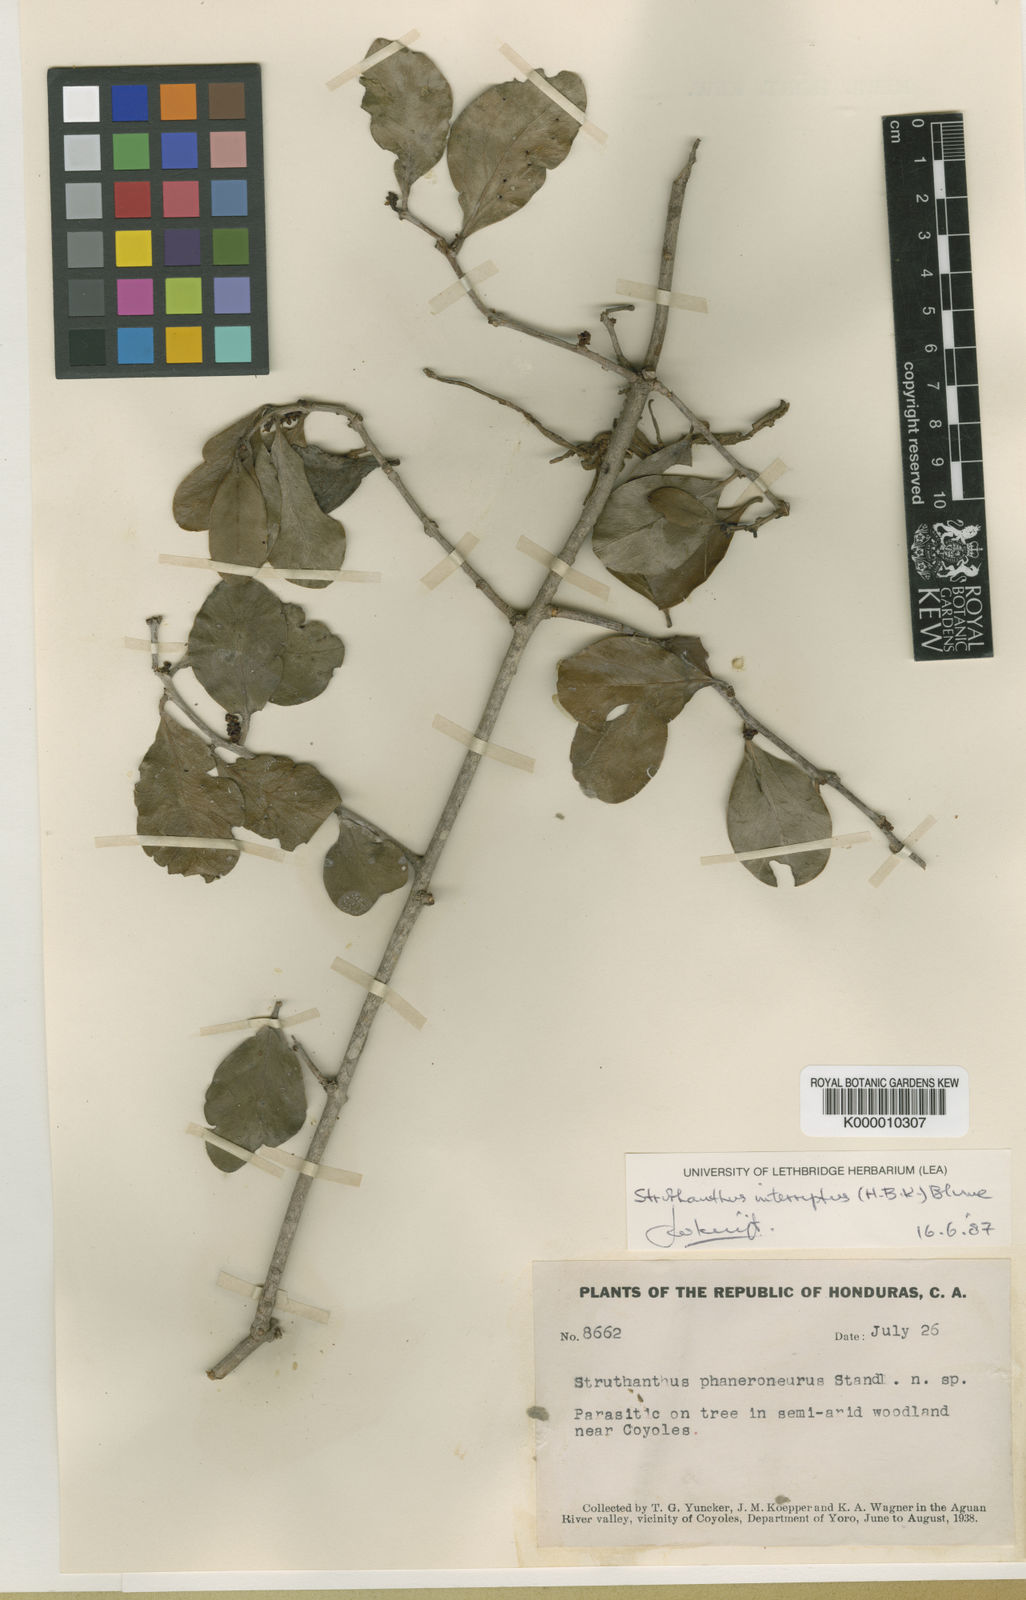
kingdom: Plantae
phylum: Tracheophyta
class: Magnoliopsida
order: Santalales
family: Loranthaceae
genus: Struthanthus
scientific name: Struthanthus
